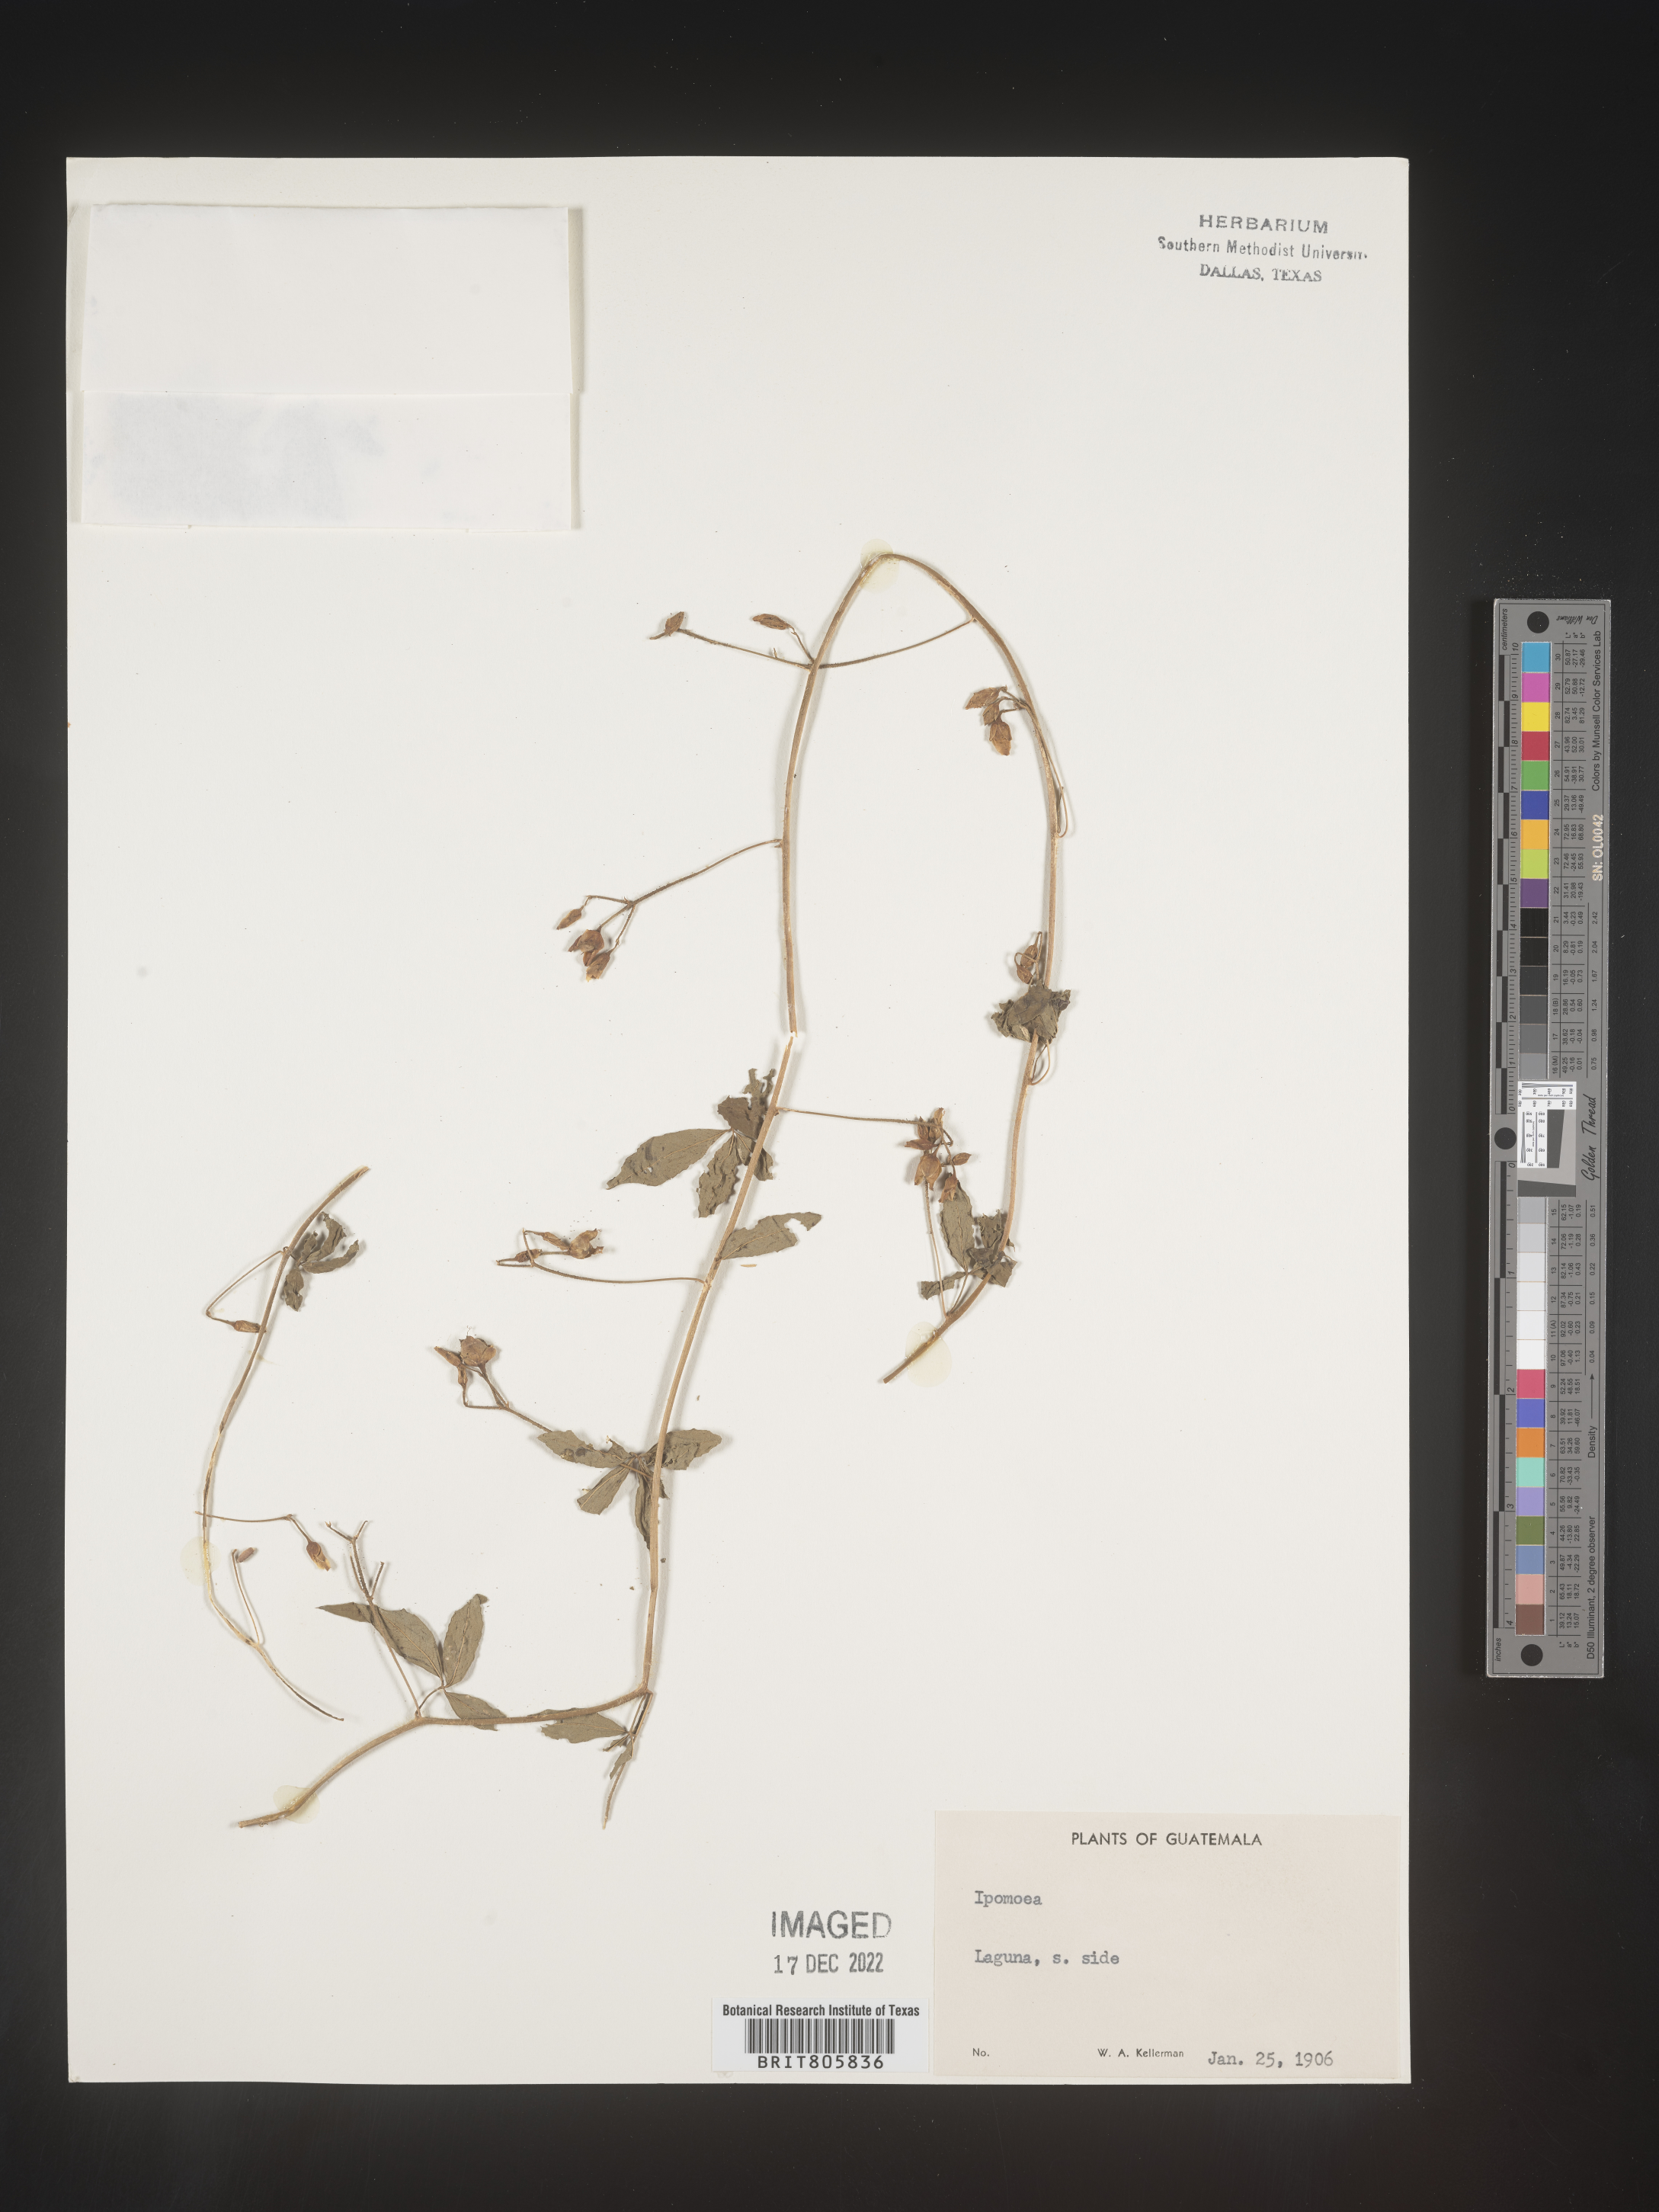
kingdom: Plantae
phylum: Tracheophyta
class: Magnoliopsida
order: Solanales
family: Convolvulaceae
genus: Merremia
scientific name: Merremia
